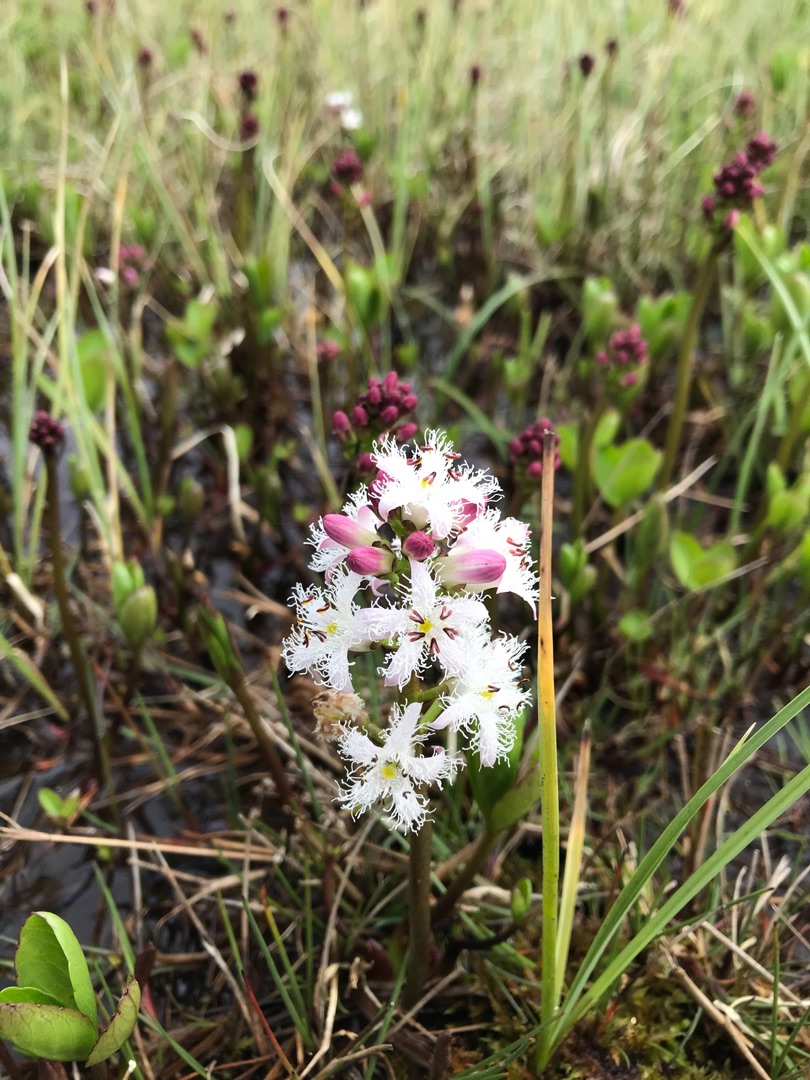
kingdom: Plantae
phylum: Tracheophyta
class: Magnoliopsida
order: Asterales
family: Menyanthaceae
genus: Menyanthes
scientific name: Menyanthes trifoliata
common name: Bukkeblad
